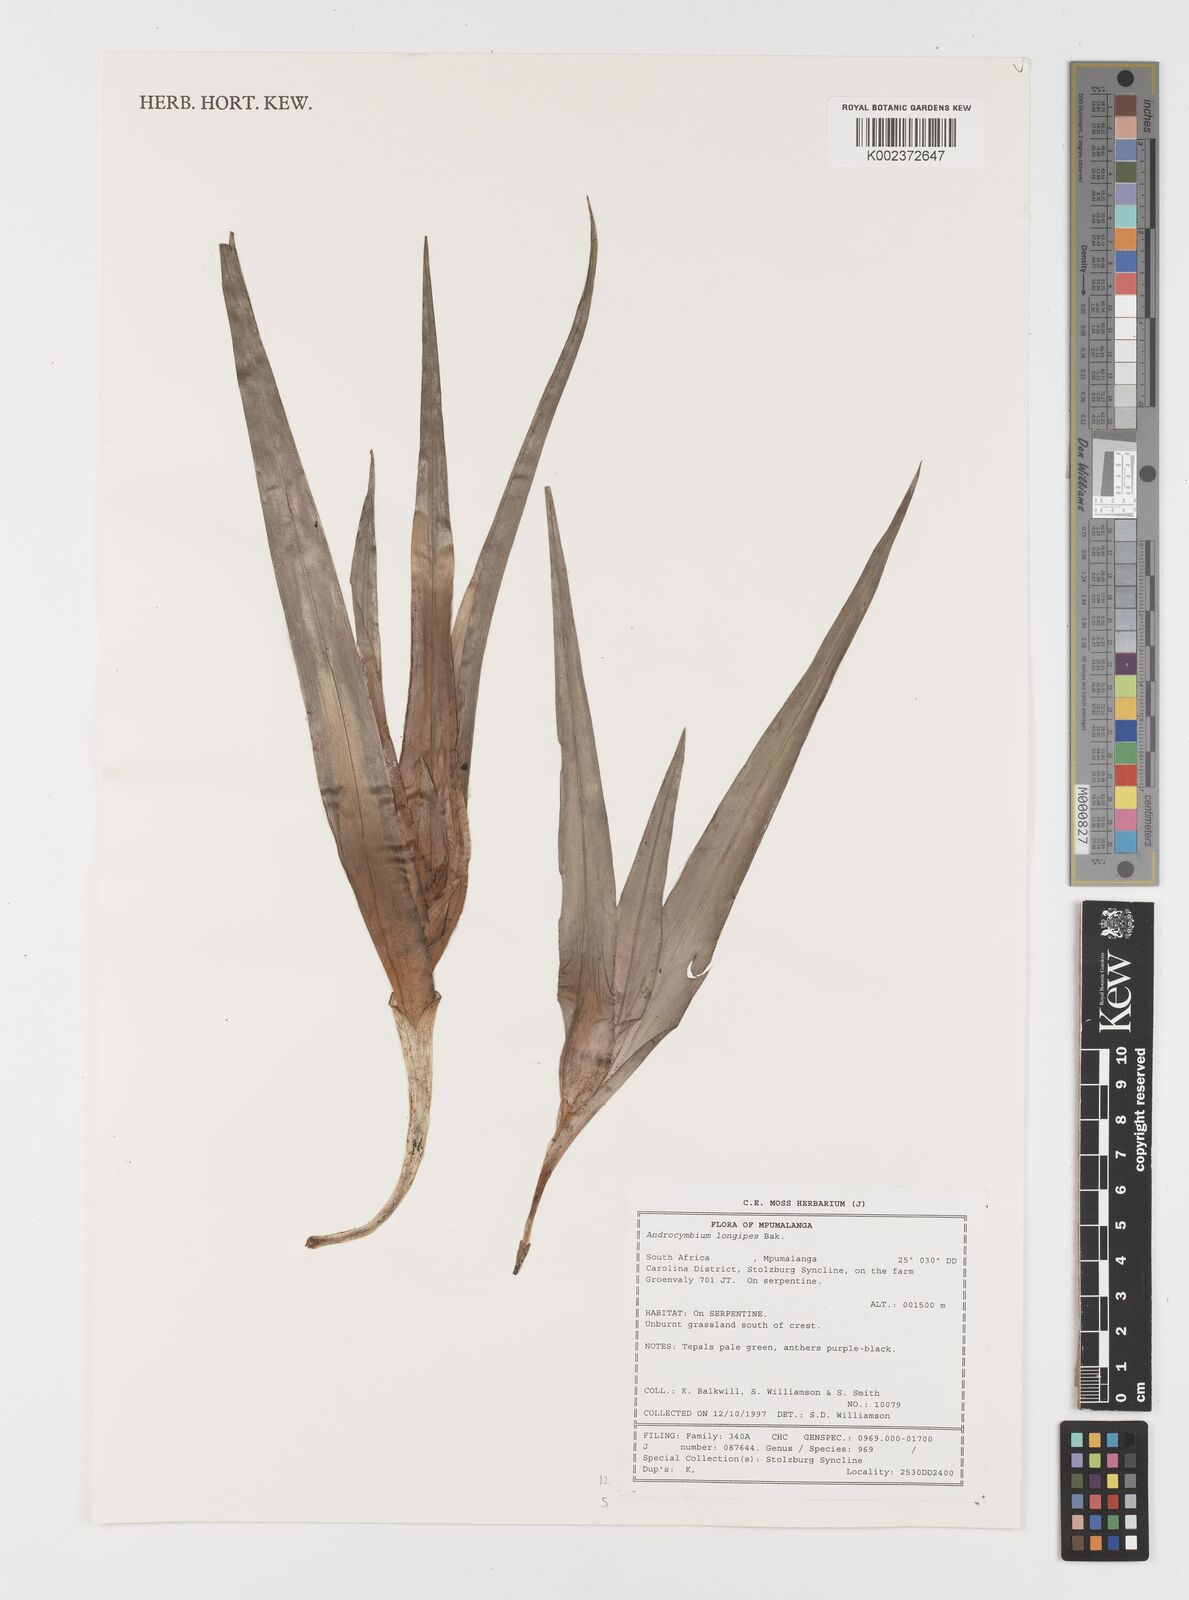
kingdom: Plantae
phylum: Tracheophyta
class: Liliopsida
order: Liliales
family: Colchicaceae
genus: Colchicum
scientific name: Colchicum longipes
